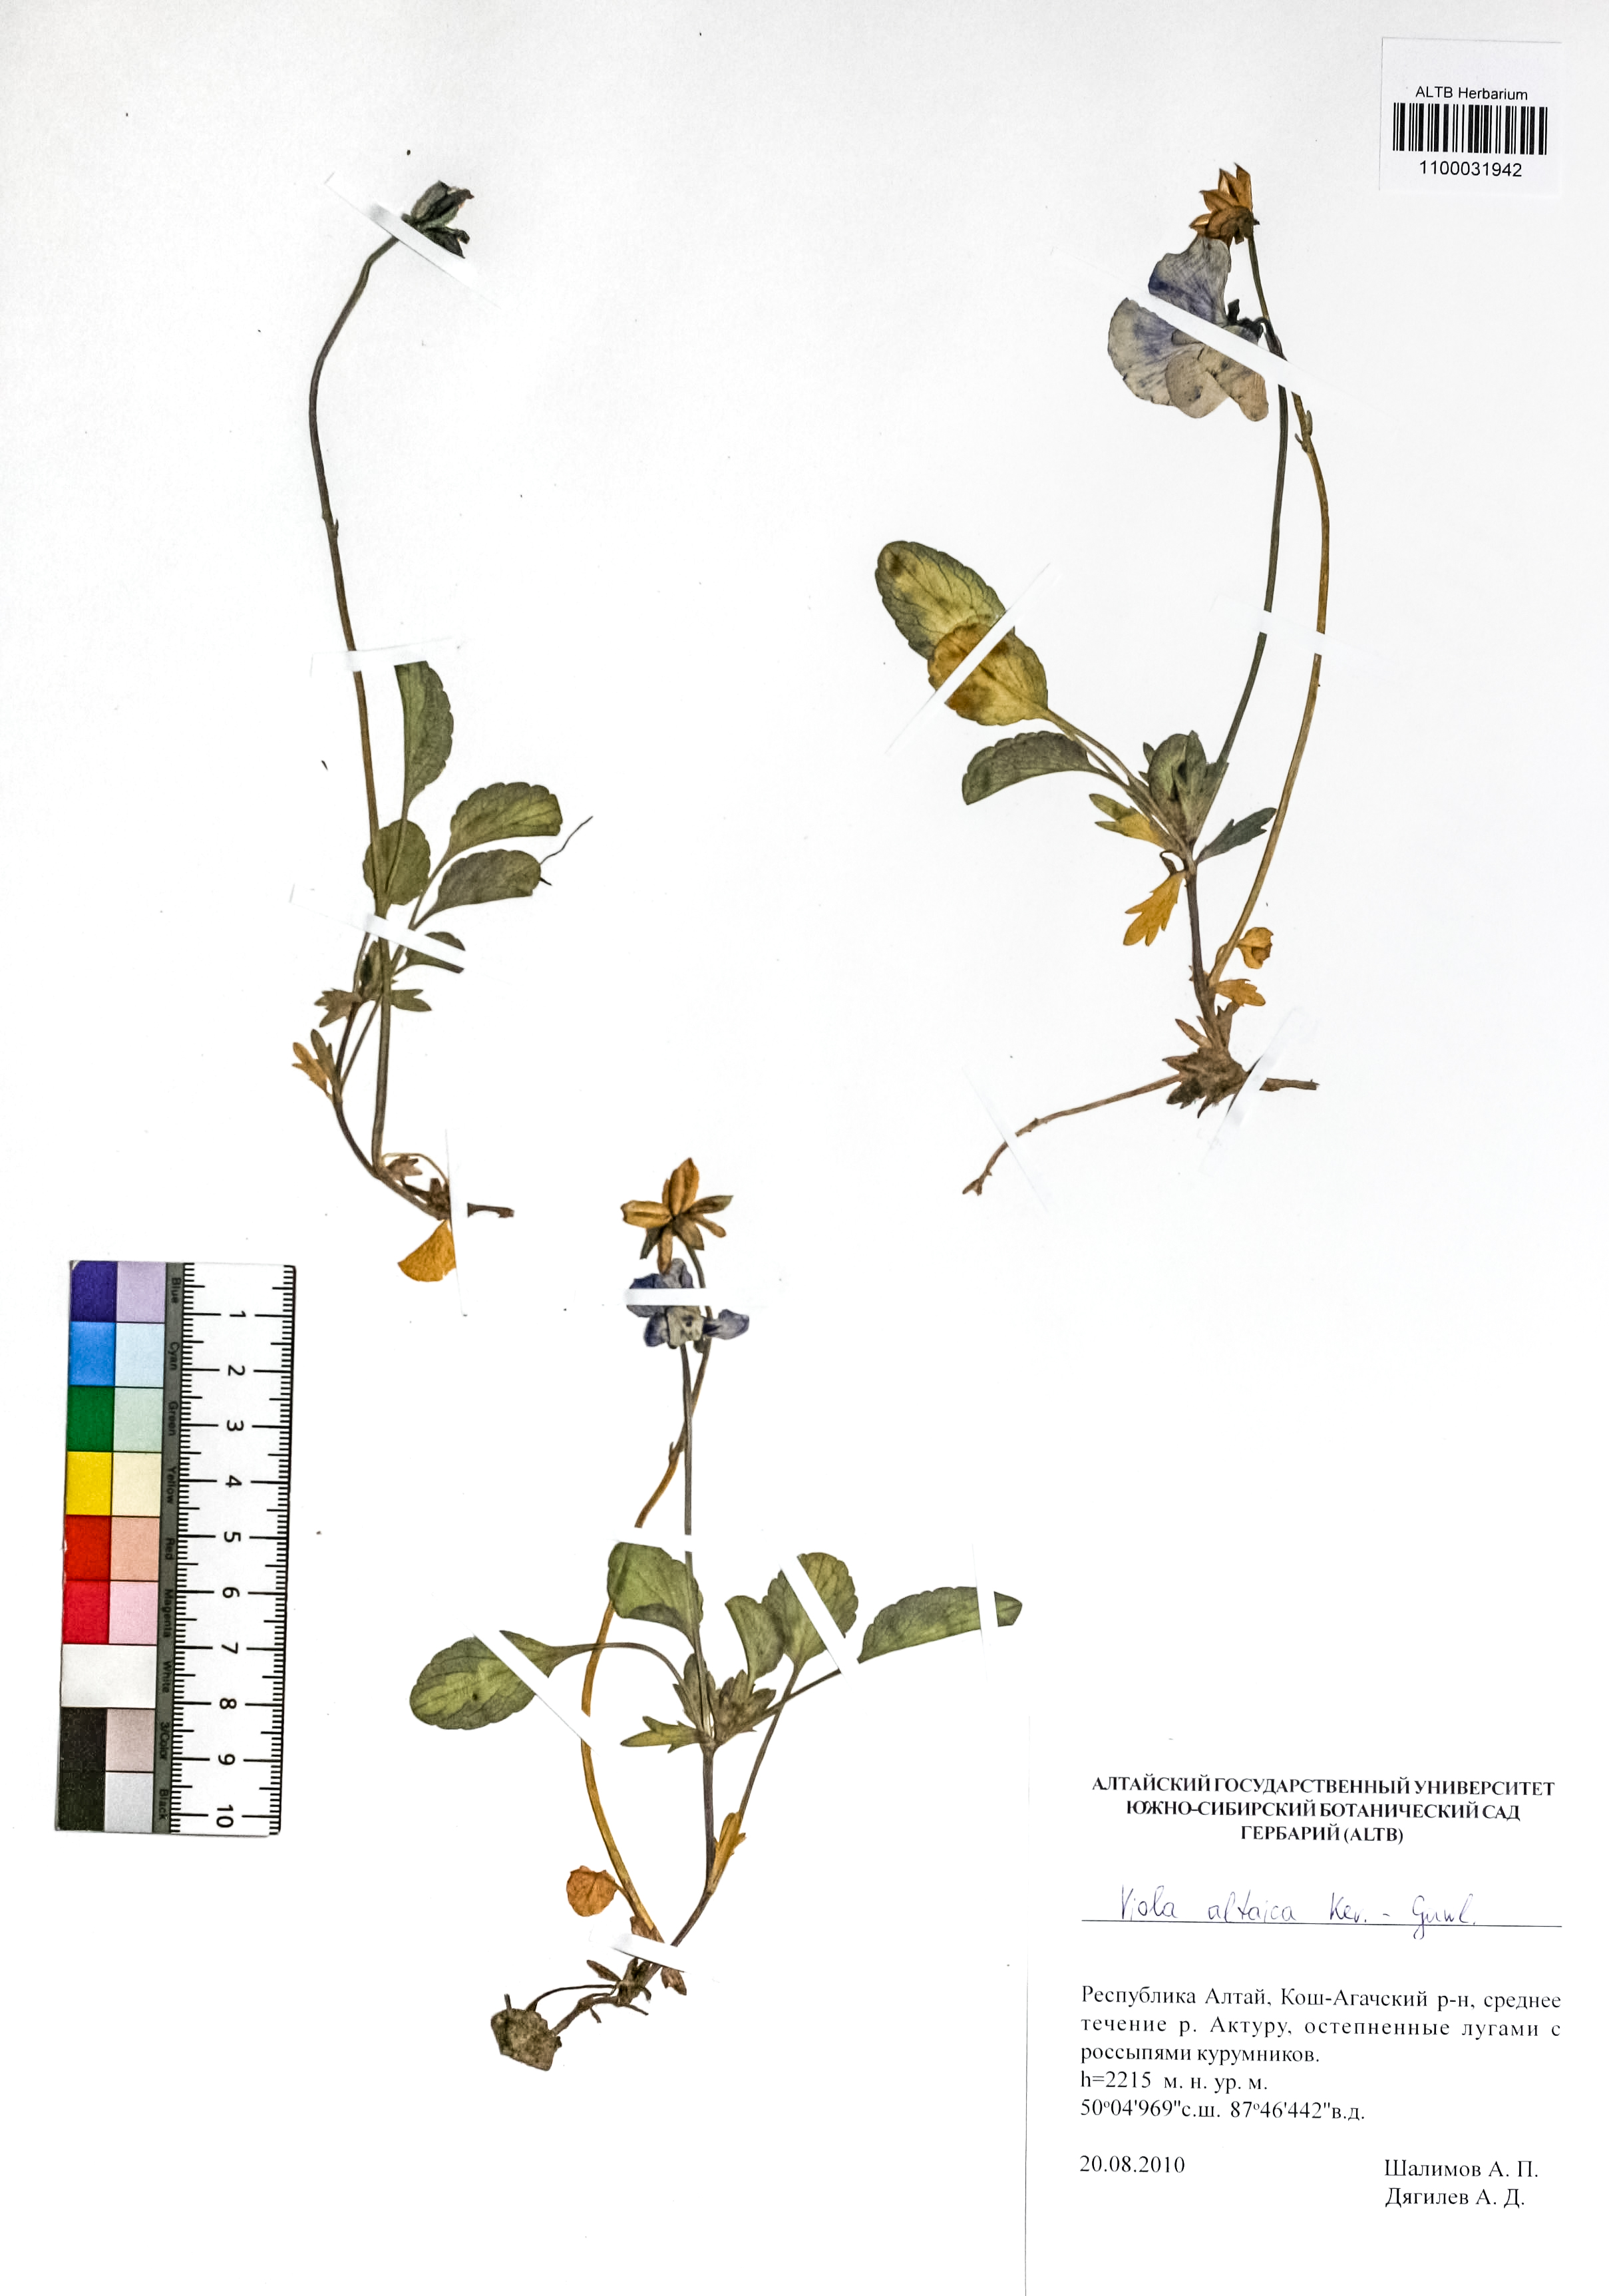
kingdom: Plantae
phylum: Tracheophyta
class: Magnoliopsida
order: Malpighiales
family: Violaceae
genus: Viola
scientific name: Viola altaica
